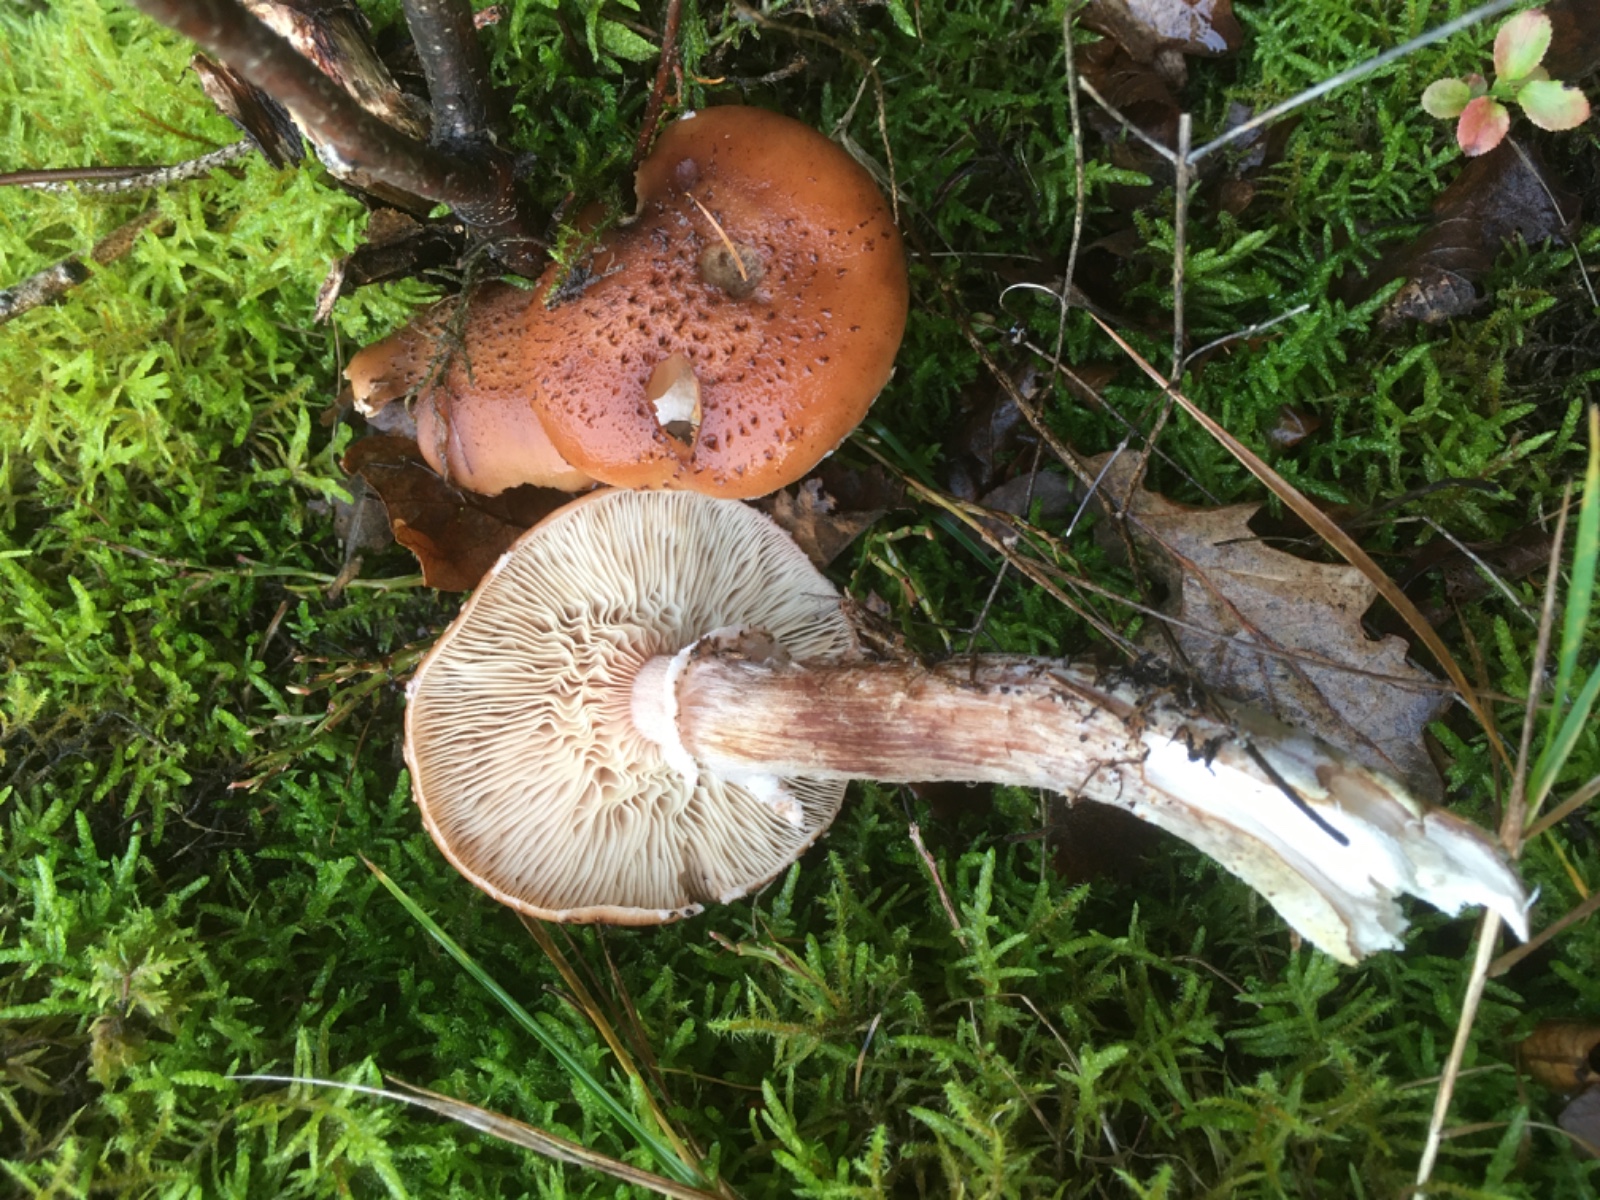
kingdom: Fungi
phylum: Basidiomycota
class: Agaricomycetes
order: Agaricales
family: Physalacriaceae
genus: Armillaria
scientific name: Armillaria lutea
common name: køllestokket honningsvamp
